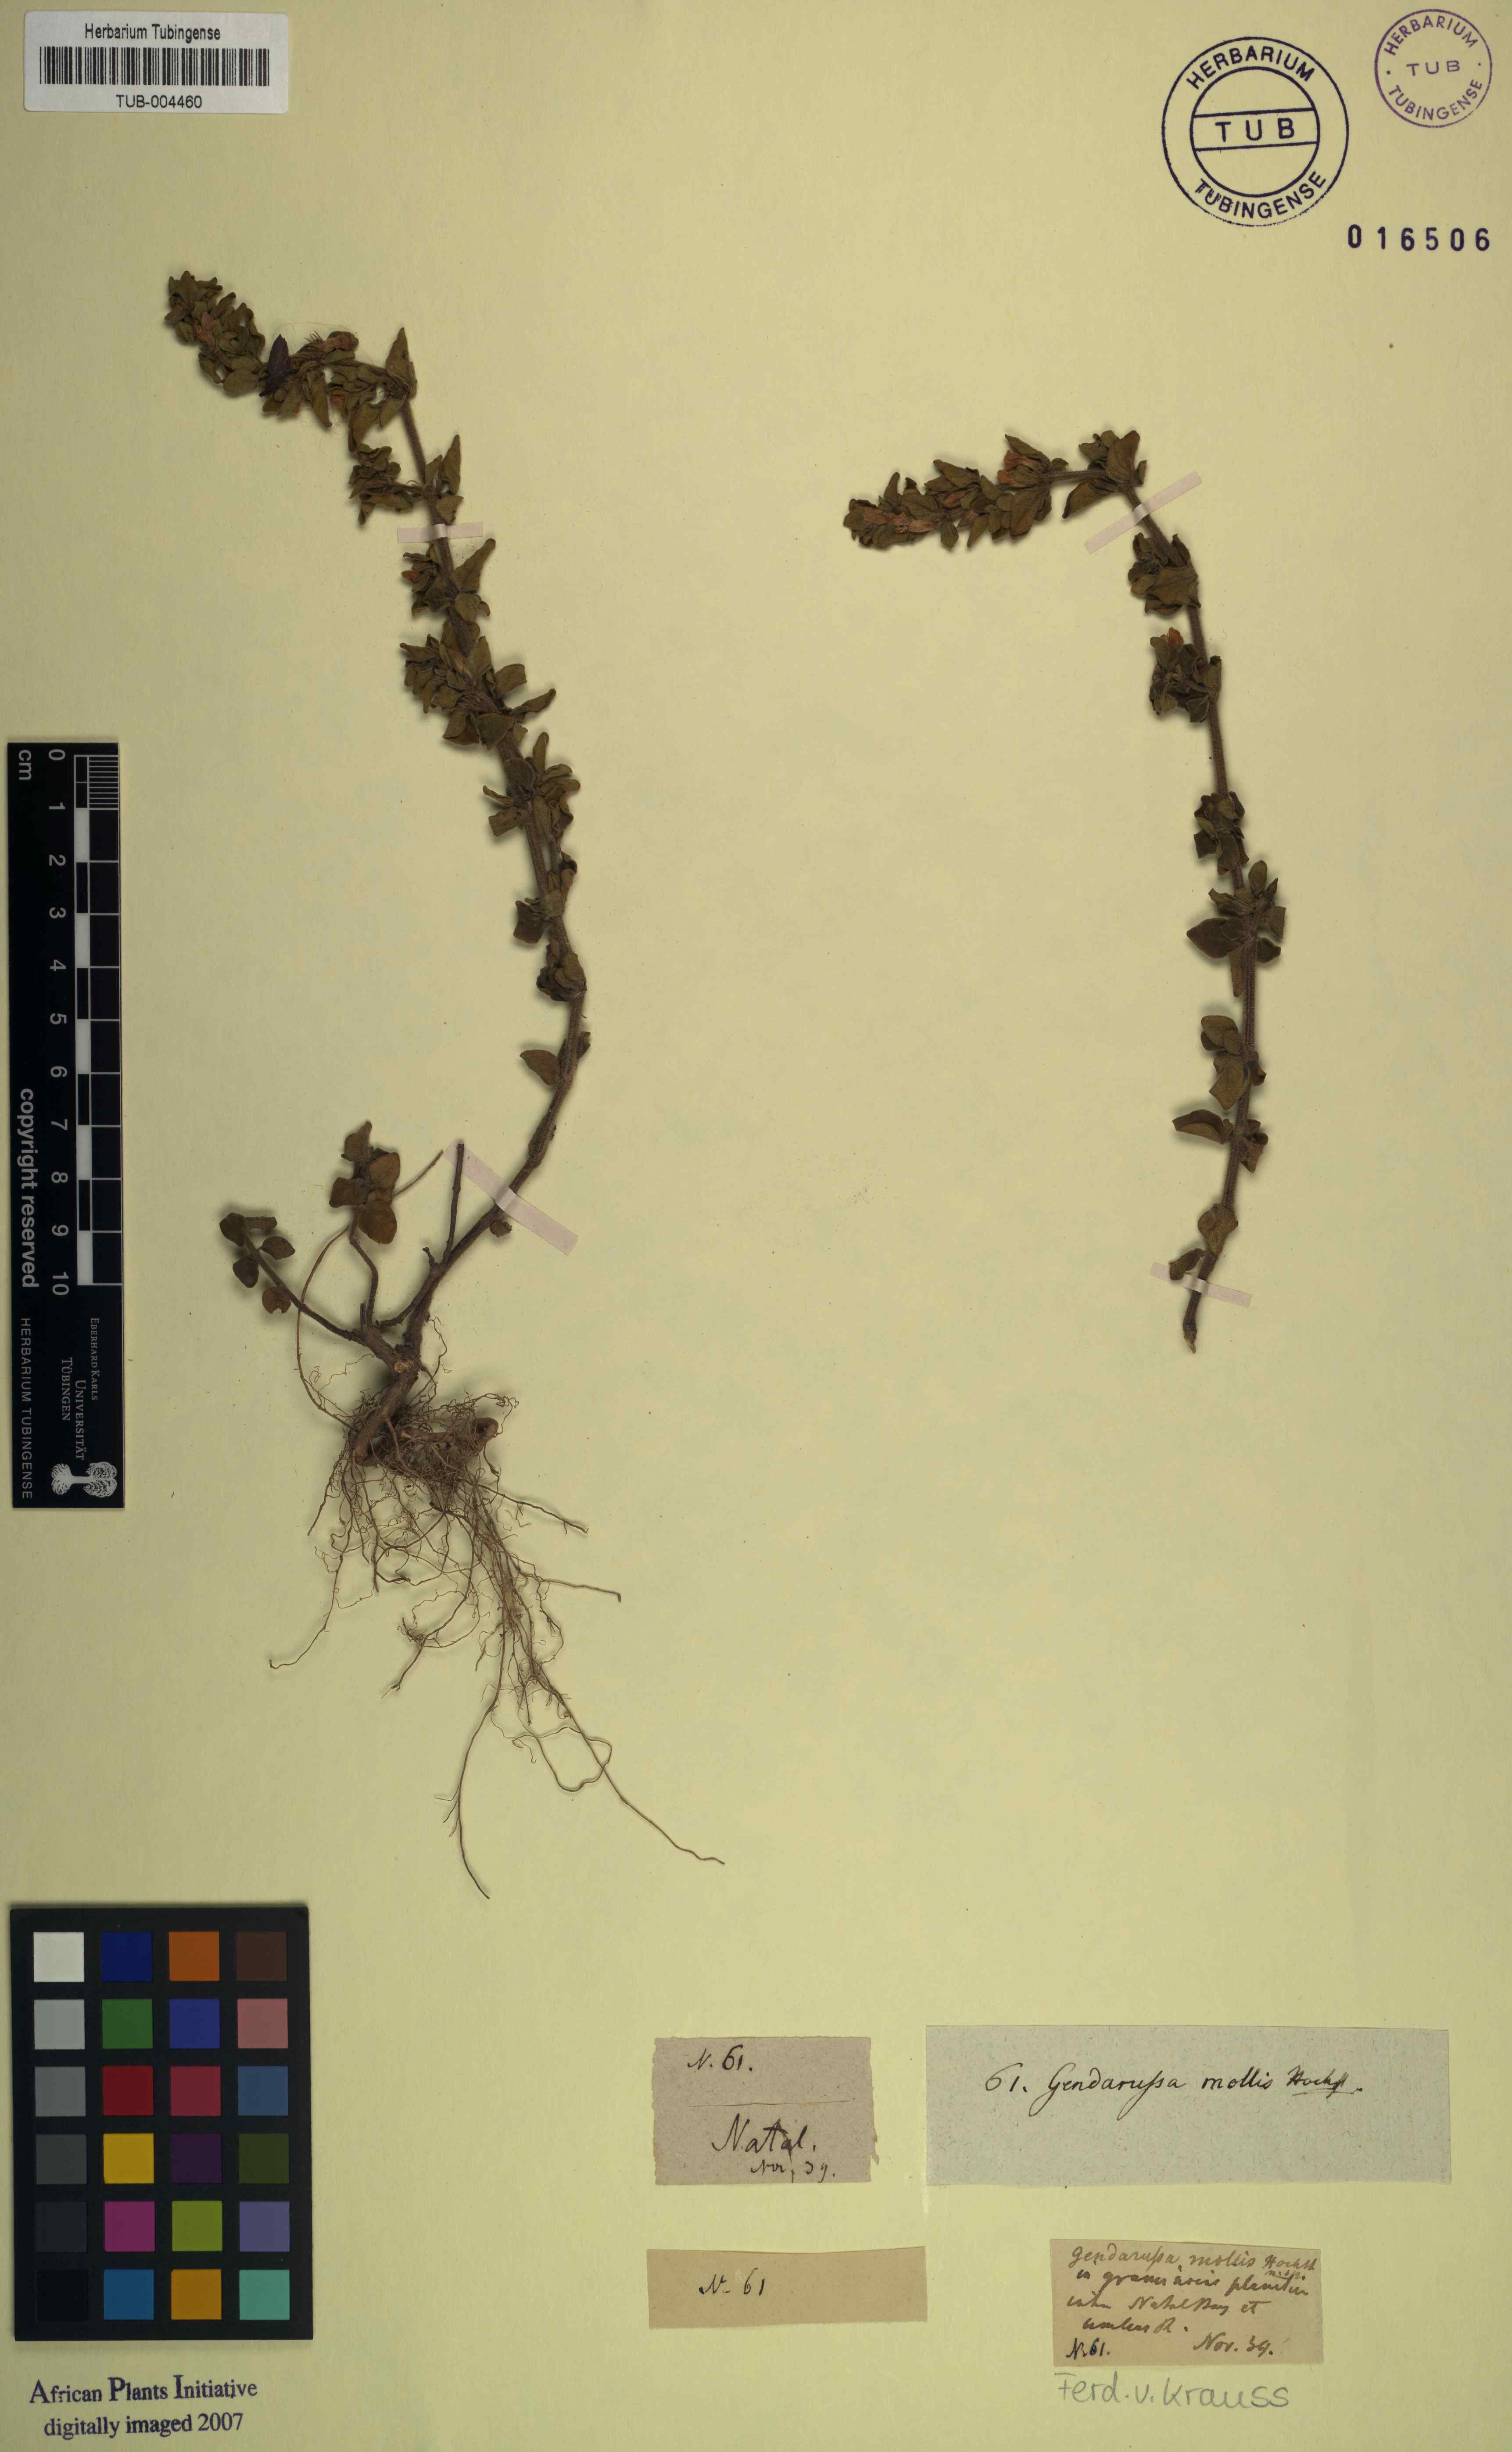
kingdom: Plantae
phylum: Tracheophyta
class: Magnoliopsida
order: Lamiales
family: Acanthaceae
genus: Justicia
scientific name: Justicia protracta
